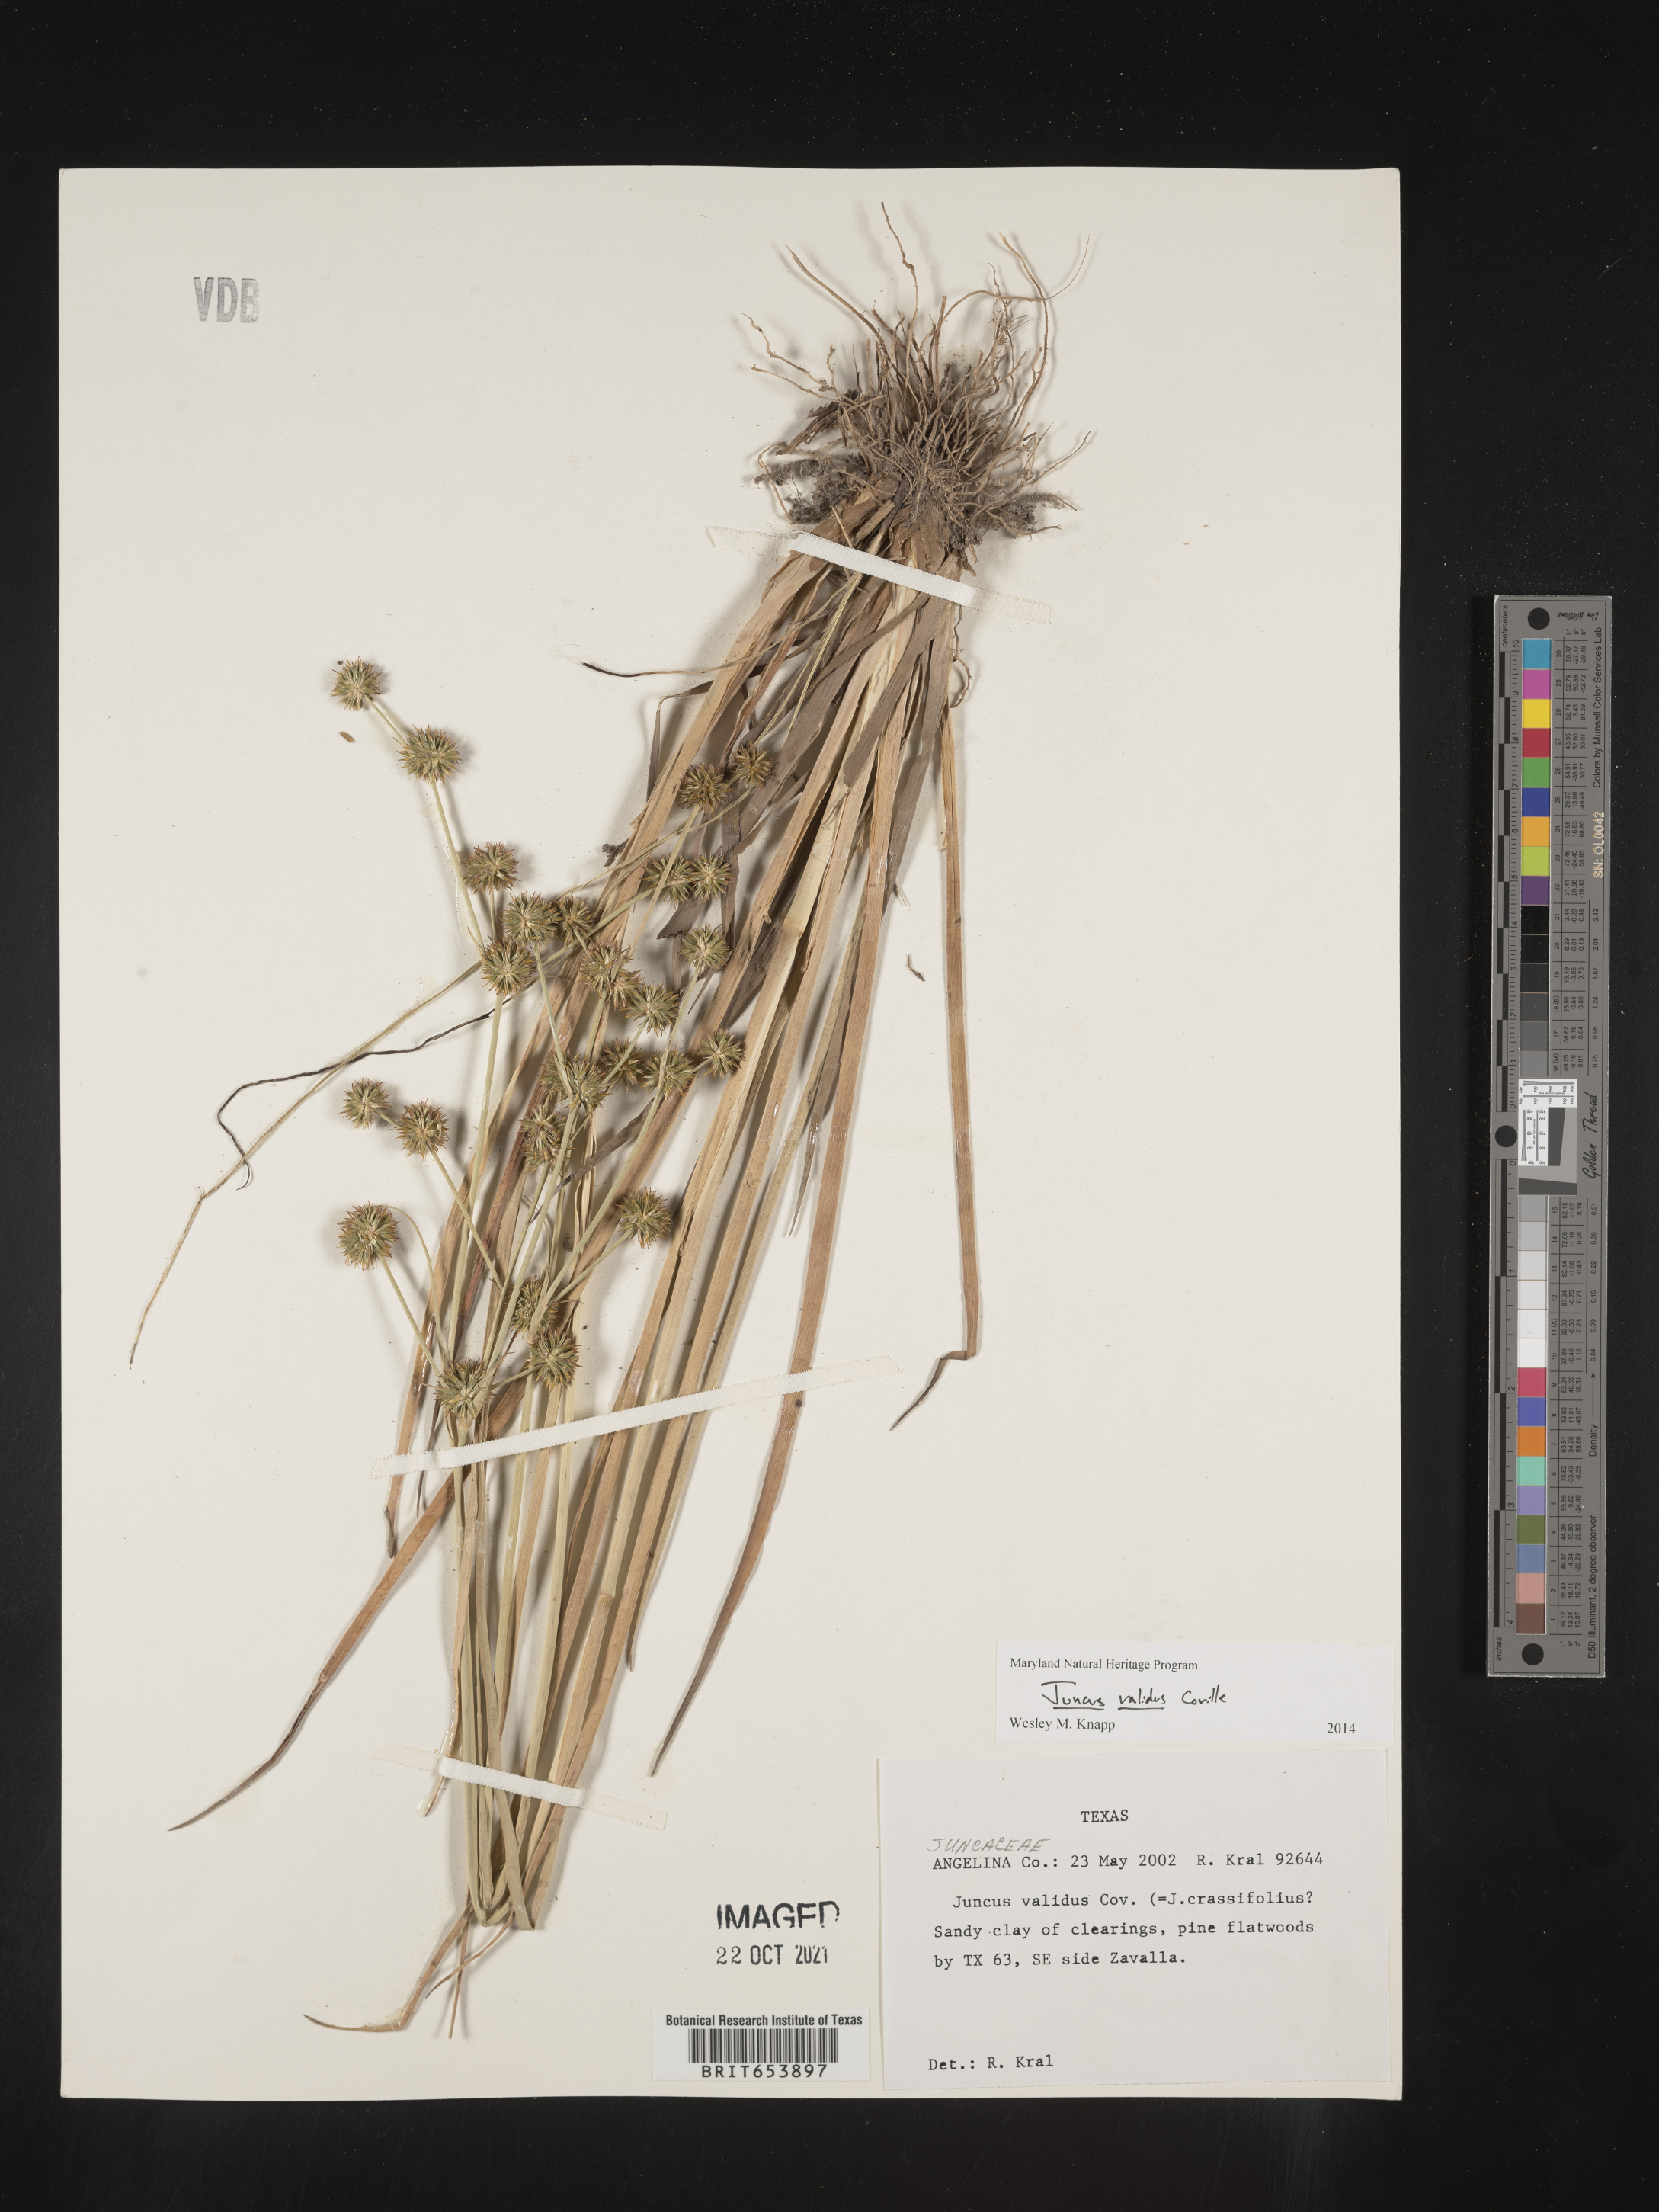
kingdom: Plantae
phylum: Tracheophyta
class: Liliopsida
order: Poales
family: Juncaceae
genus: Juncus
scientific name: Juncus validus
